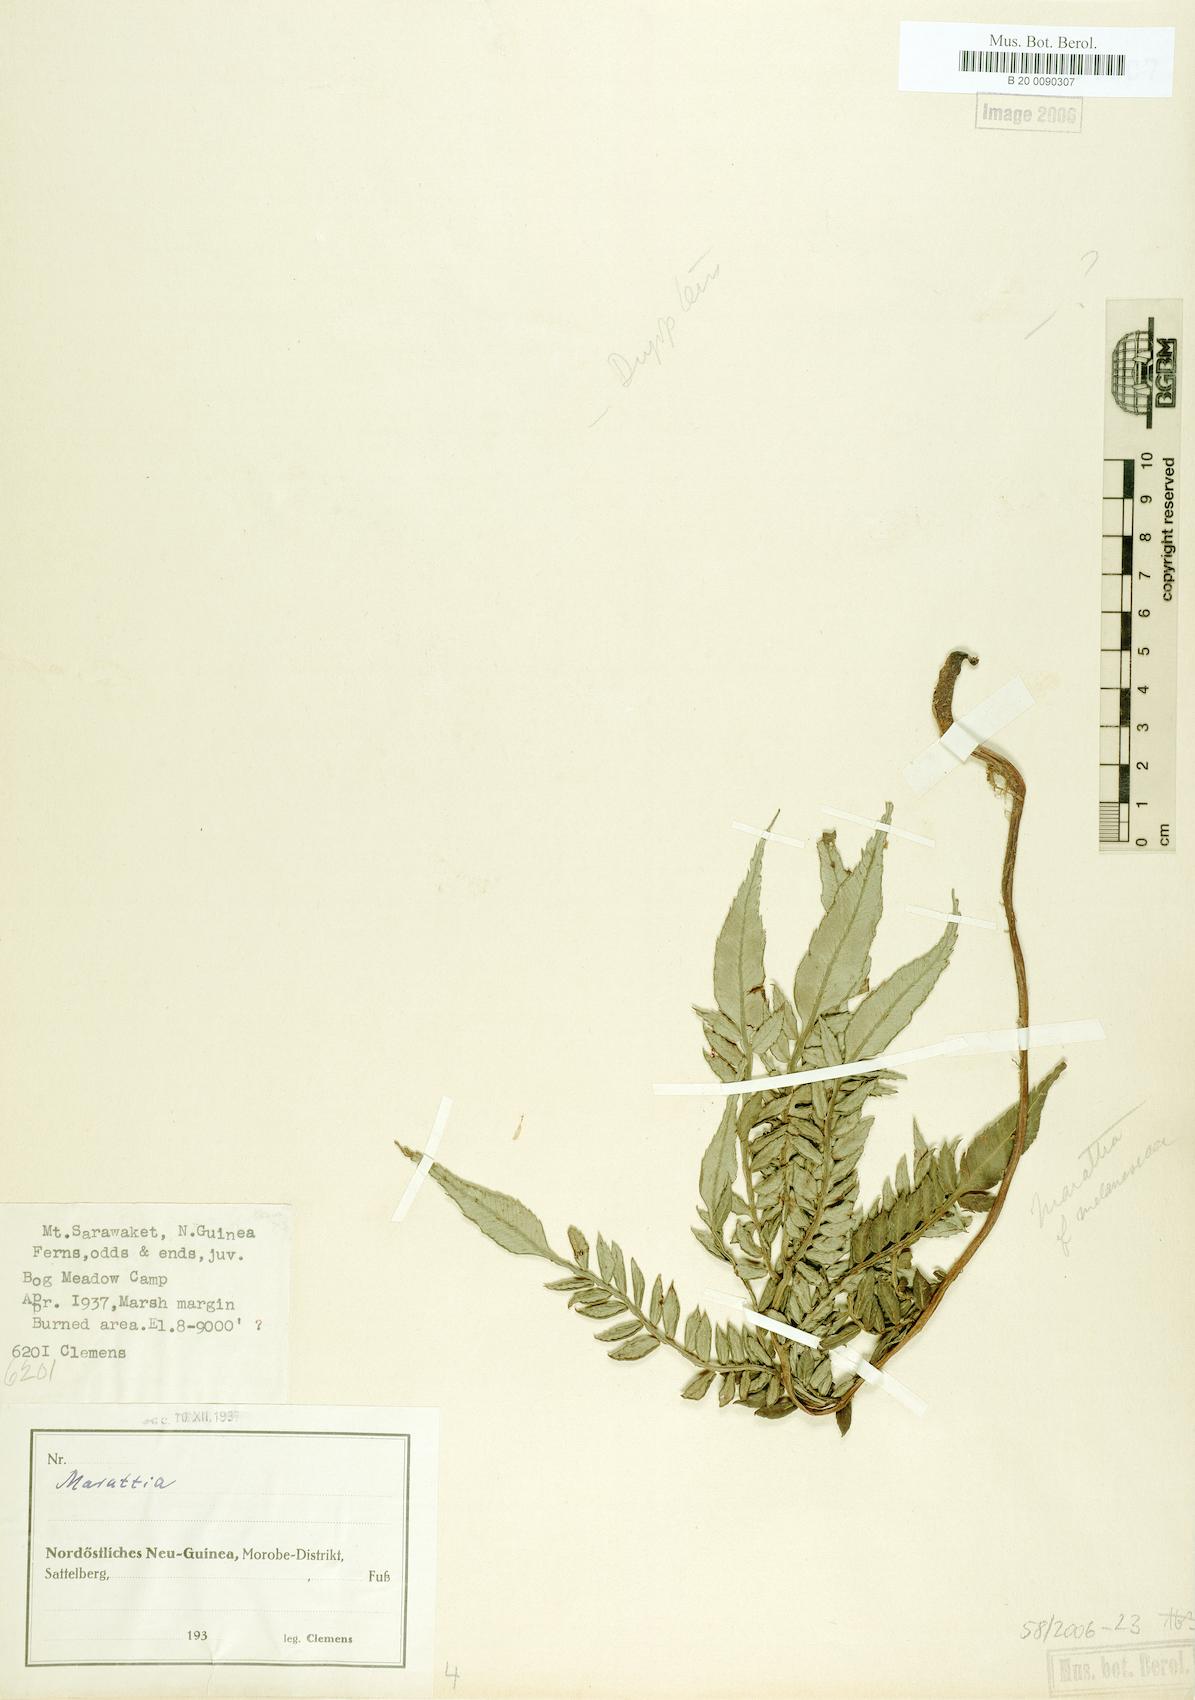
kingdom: Plantae
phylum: Tracheophyta
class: Polypodiopsida
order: Marattiales
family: Marattiaceae
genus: Marattia
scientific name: Marattia
